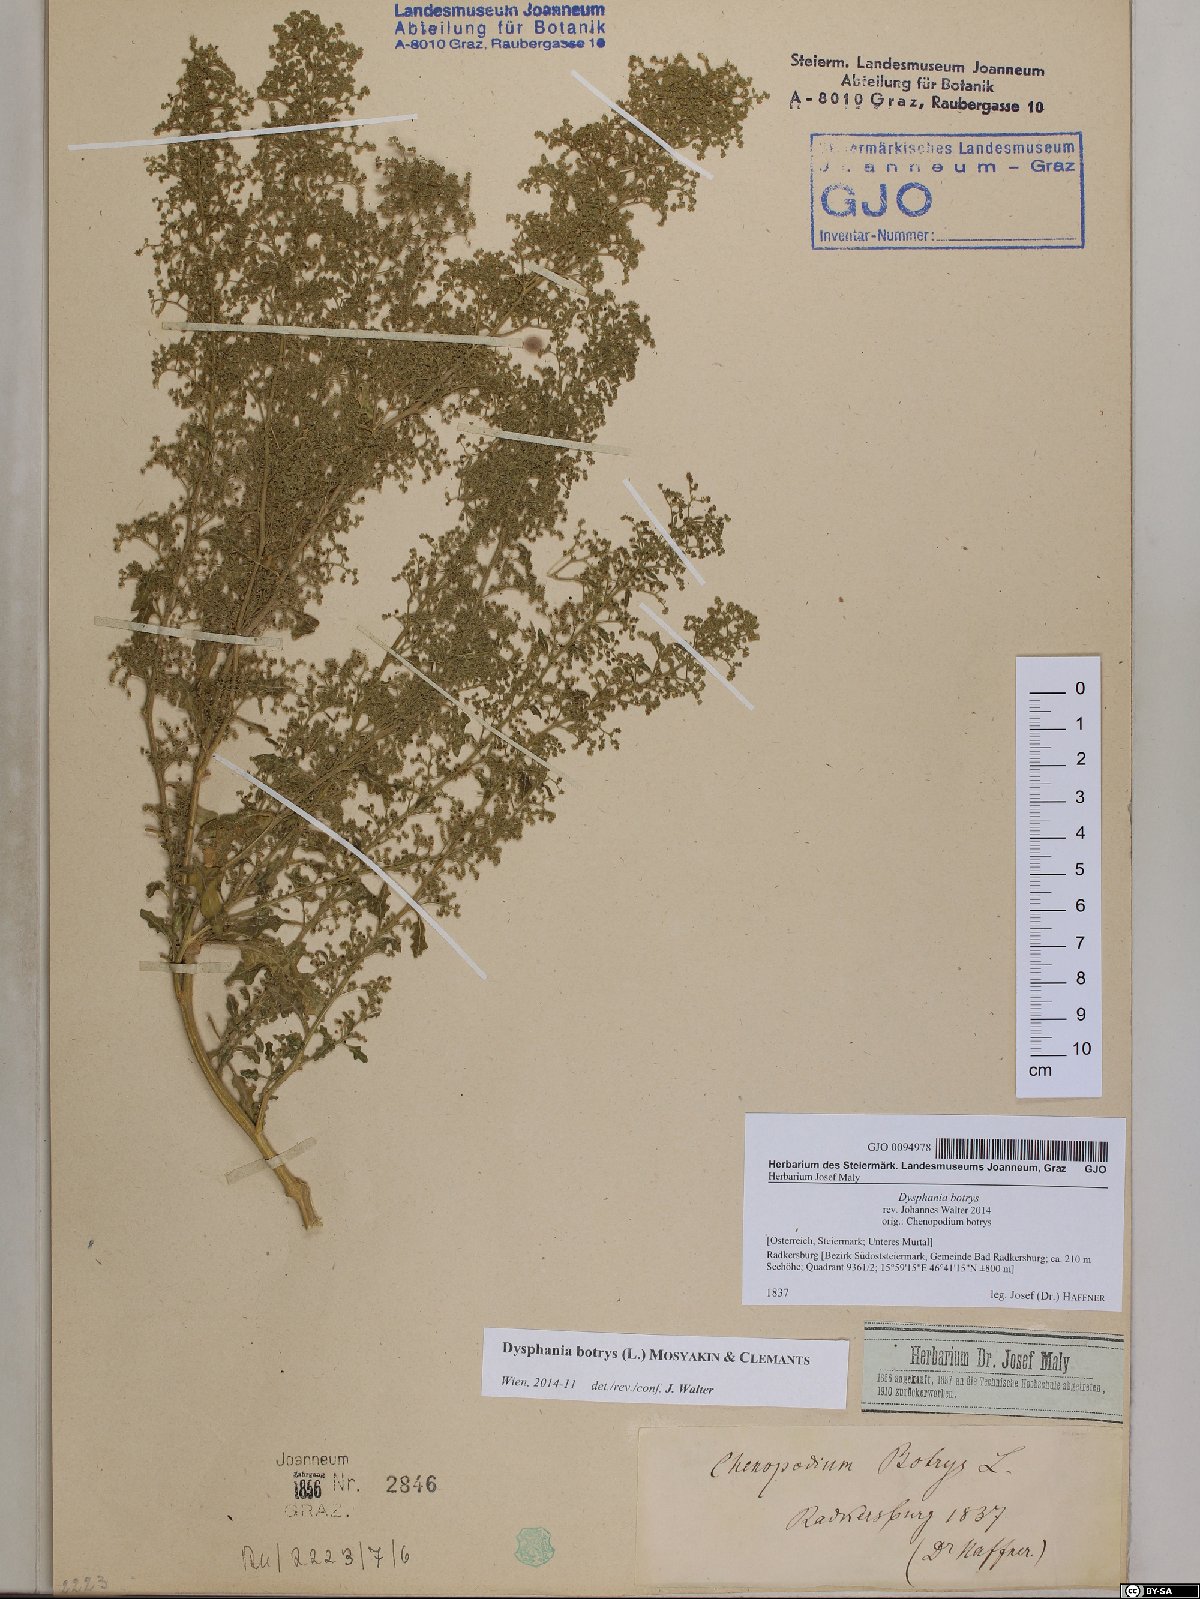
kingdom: Plantae
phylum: Tracheophyta
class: Magnoliopsida
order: Caryophyllales
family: Amaranthaceae
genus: Dysphania
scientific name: Dysphania botrys
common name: Feather-geranium
